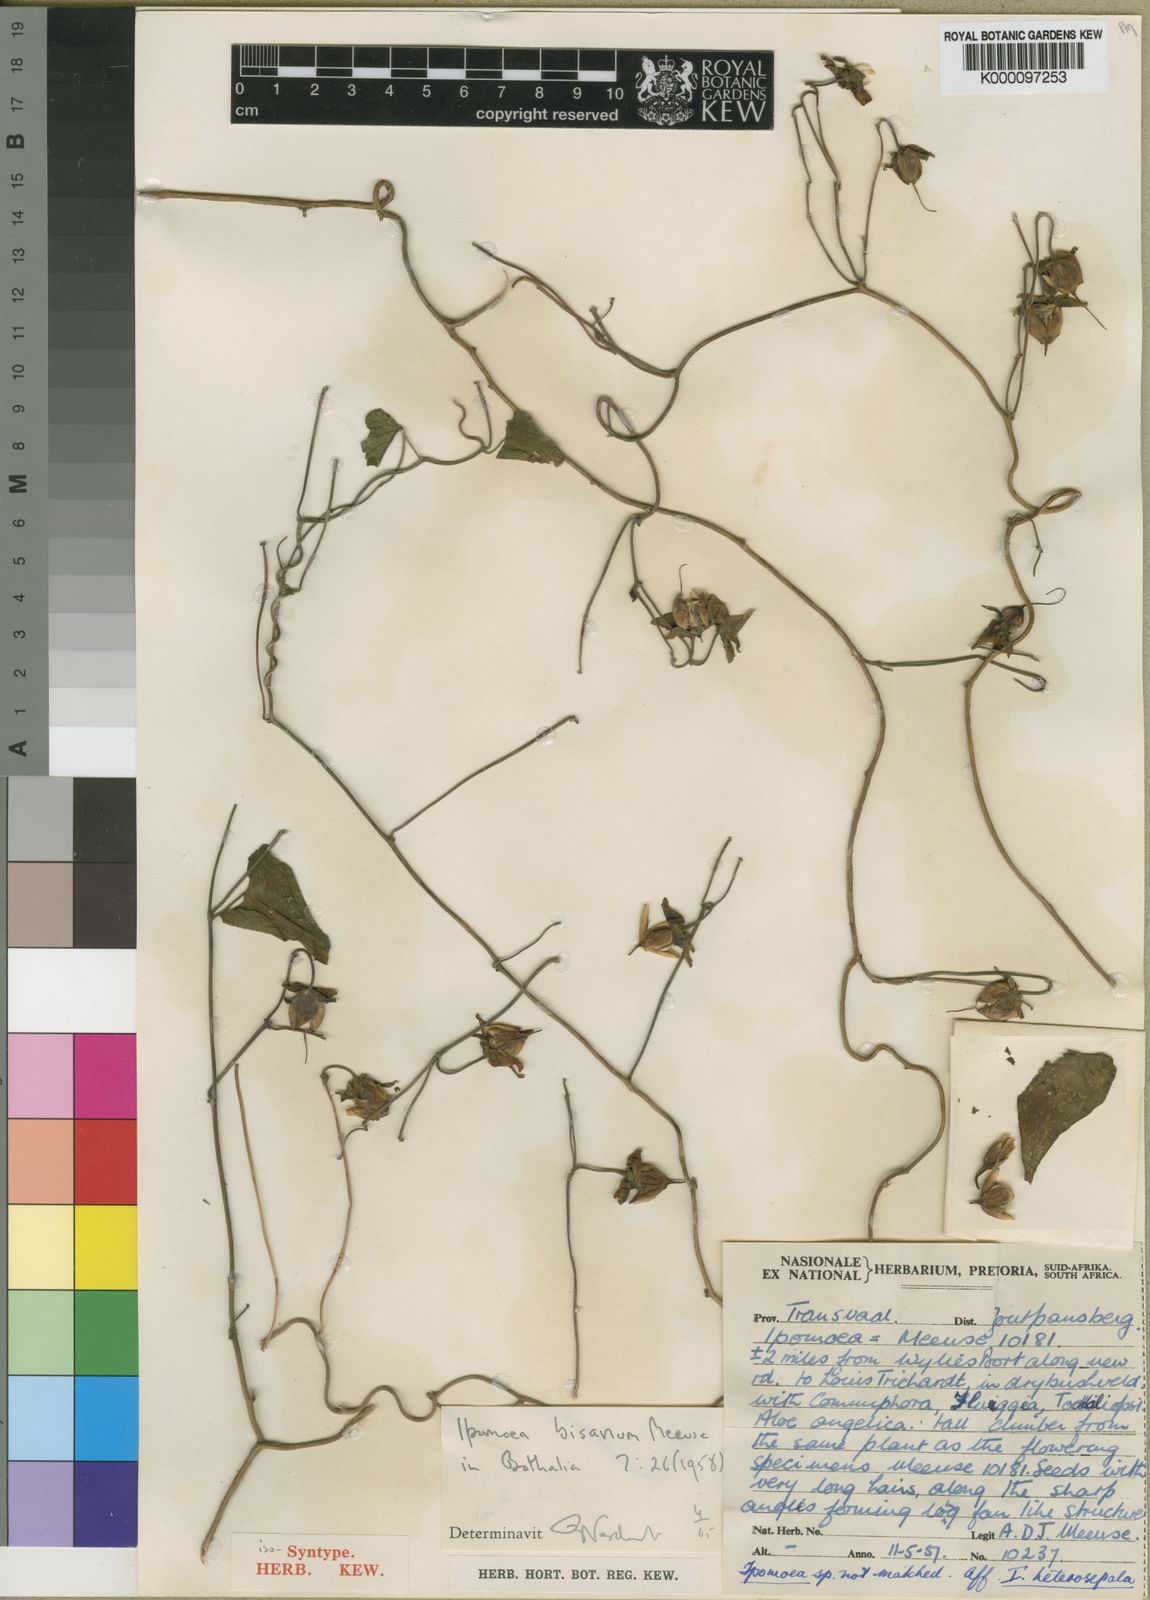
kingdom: Plantae
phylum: Tracheophyta
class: Magnoliopsida
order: Solanales
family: Convolvulaceae
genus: Ipomoea
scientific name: Ipomoea bisavium
